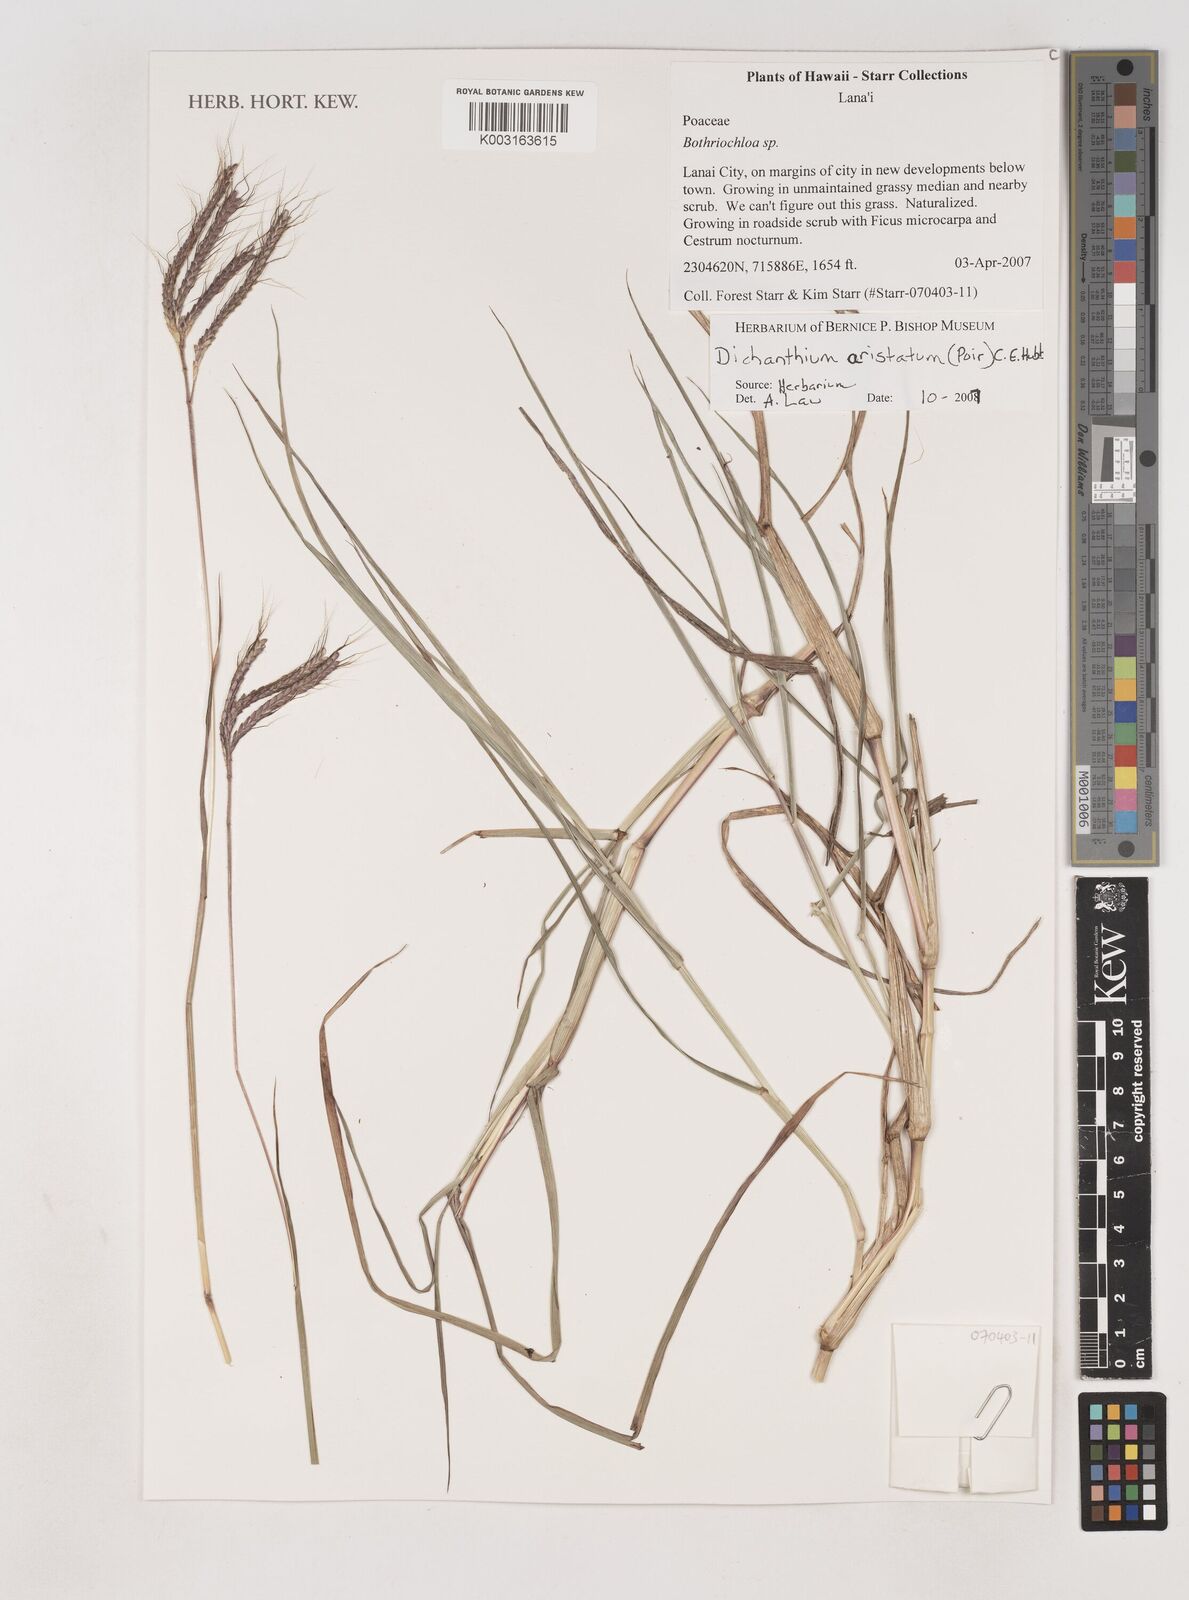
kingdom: Plantae
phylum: Tracheophyta
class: Liliopsida
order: Poales
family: Poaceae
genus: Dichanthium
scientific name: Dichanthium aristatum
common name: Angleton bluestem
